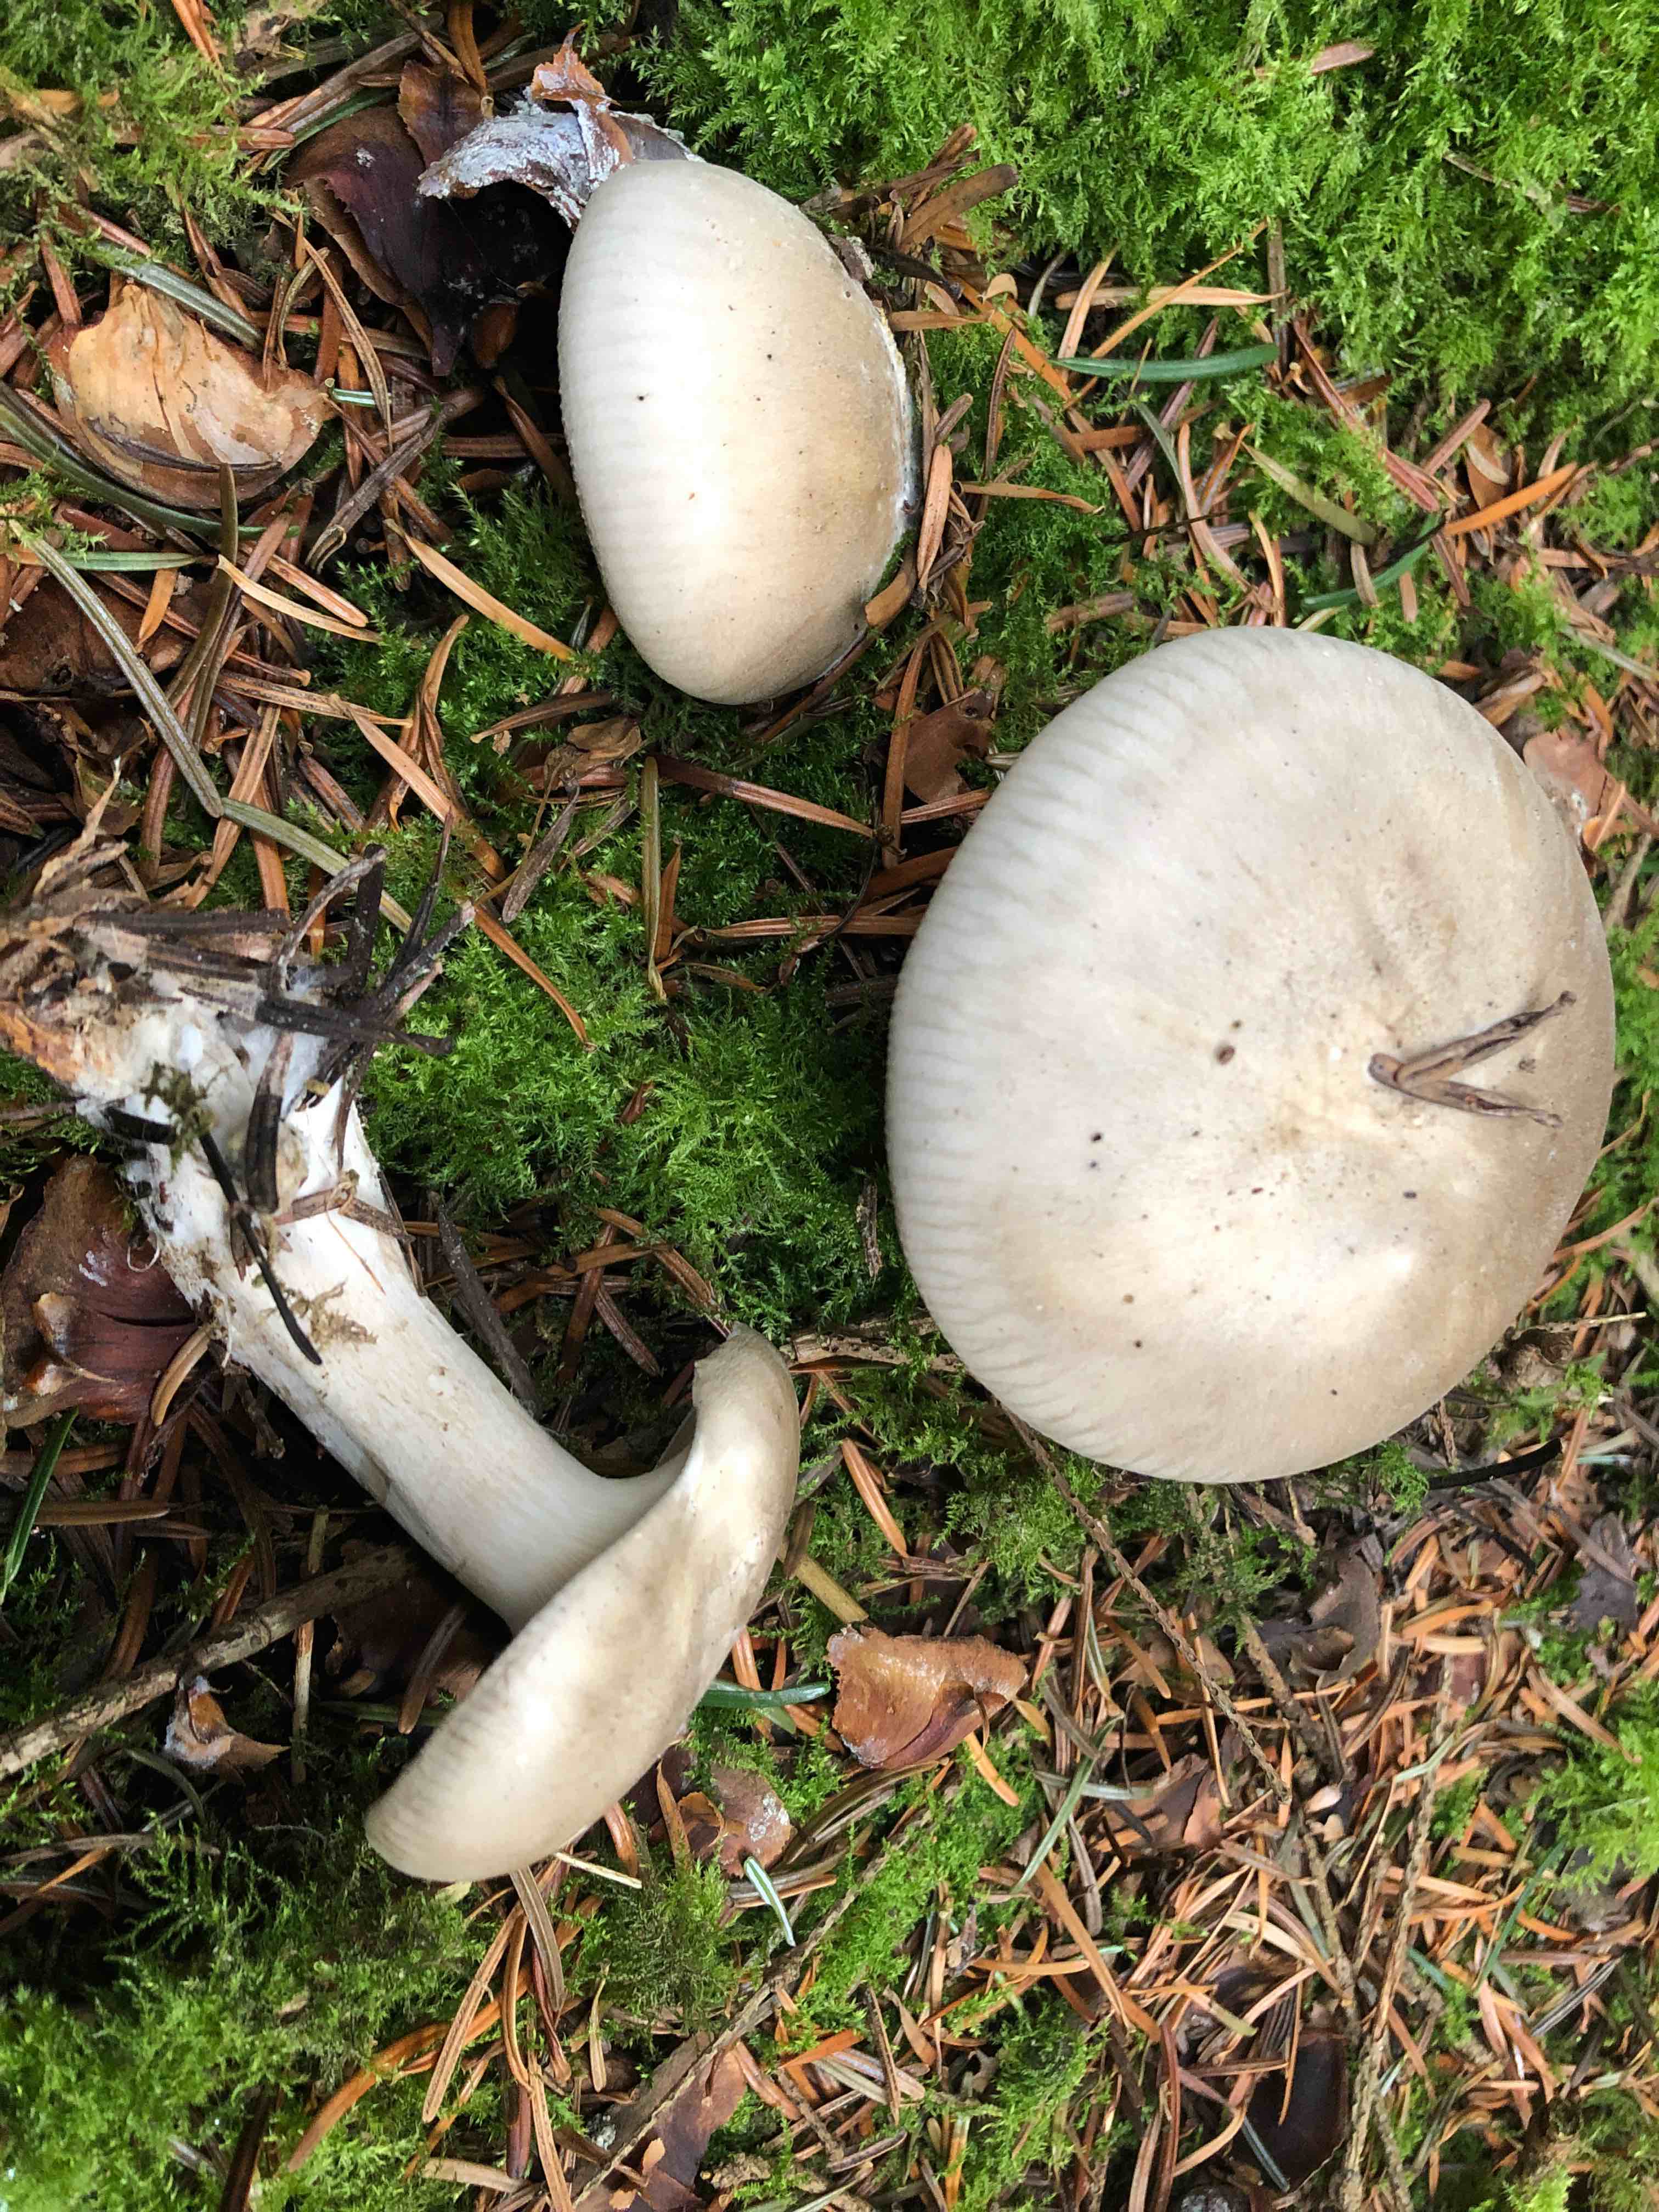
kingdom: Fungi
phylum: Basidiomycota
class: Agaricomycetes
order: Agaricales
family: Tricholomataceae
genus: Clitocybe
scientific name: Clitocybe nebularis
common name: tåge-tragthat
